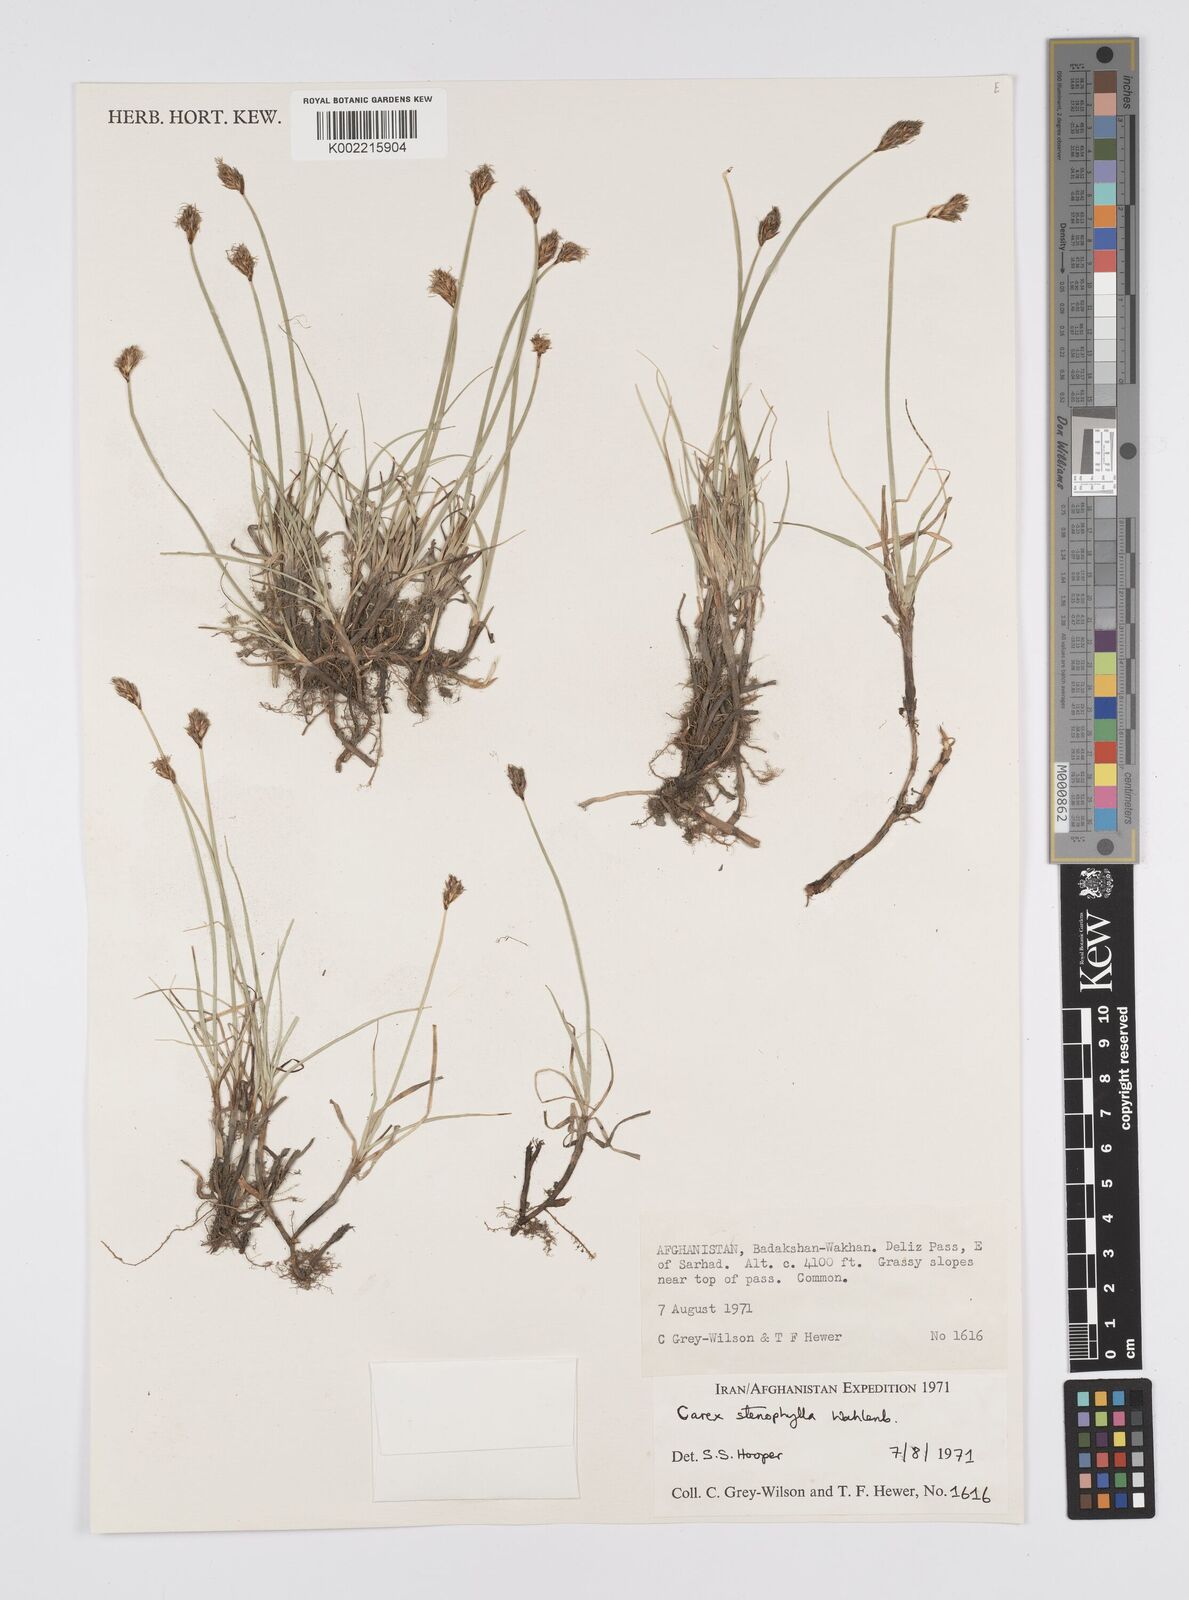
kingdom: Plantae
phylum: Tracheophyta
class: Liliopsida
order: Poales
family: Cyperaceae
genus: Carex
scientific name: Carex stenophylla
